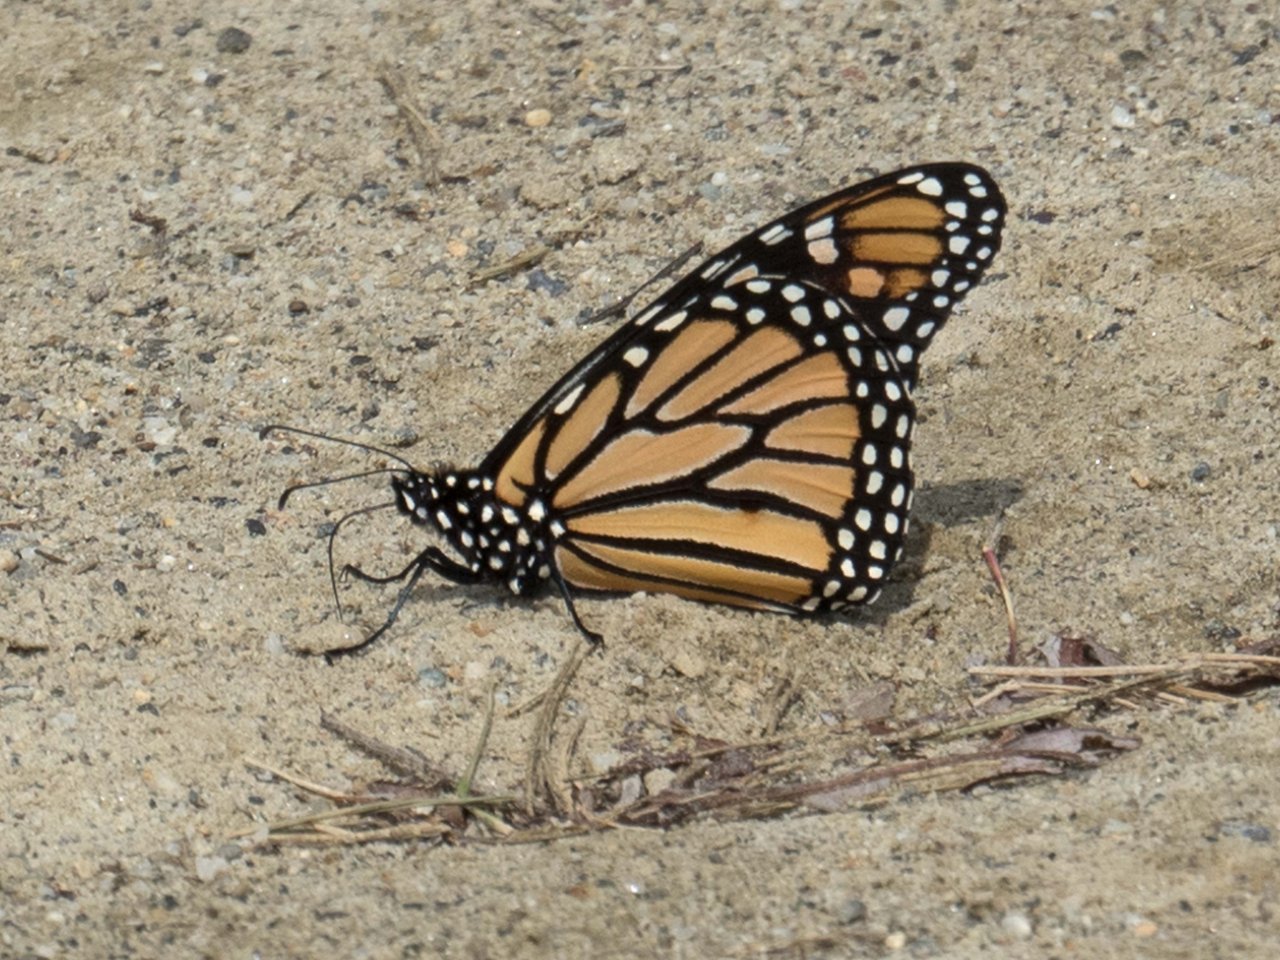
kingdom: Animalia
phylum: Arthropoda
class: Insecta
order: Lepidoptera
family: Nymphalidae
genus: Danaus
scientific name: Danaus plexippus
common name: Monarch
